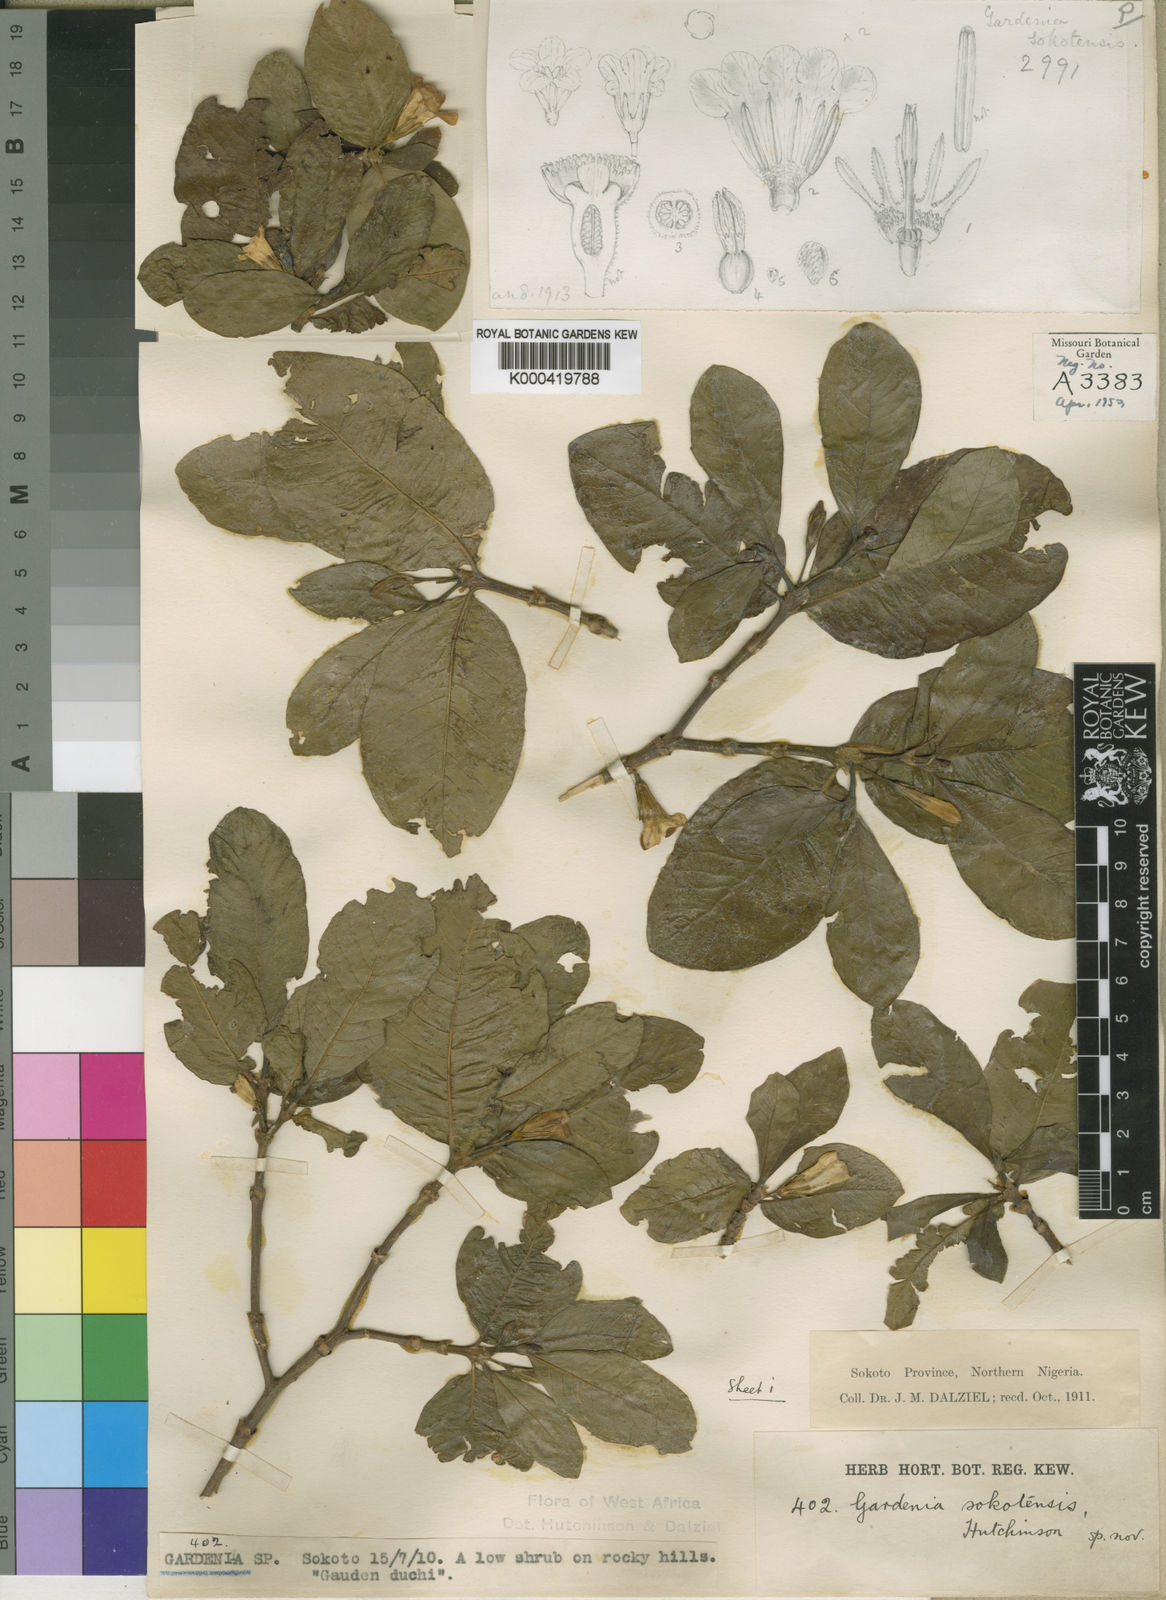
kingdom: Plantae
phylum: Tracheophyta
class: Magnoliopsida
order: Gentianales
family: Rubiaceae
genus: Gardenia
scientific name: Gardenia sokotensis
